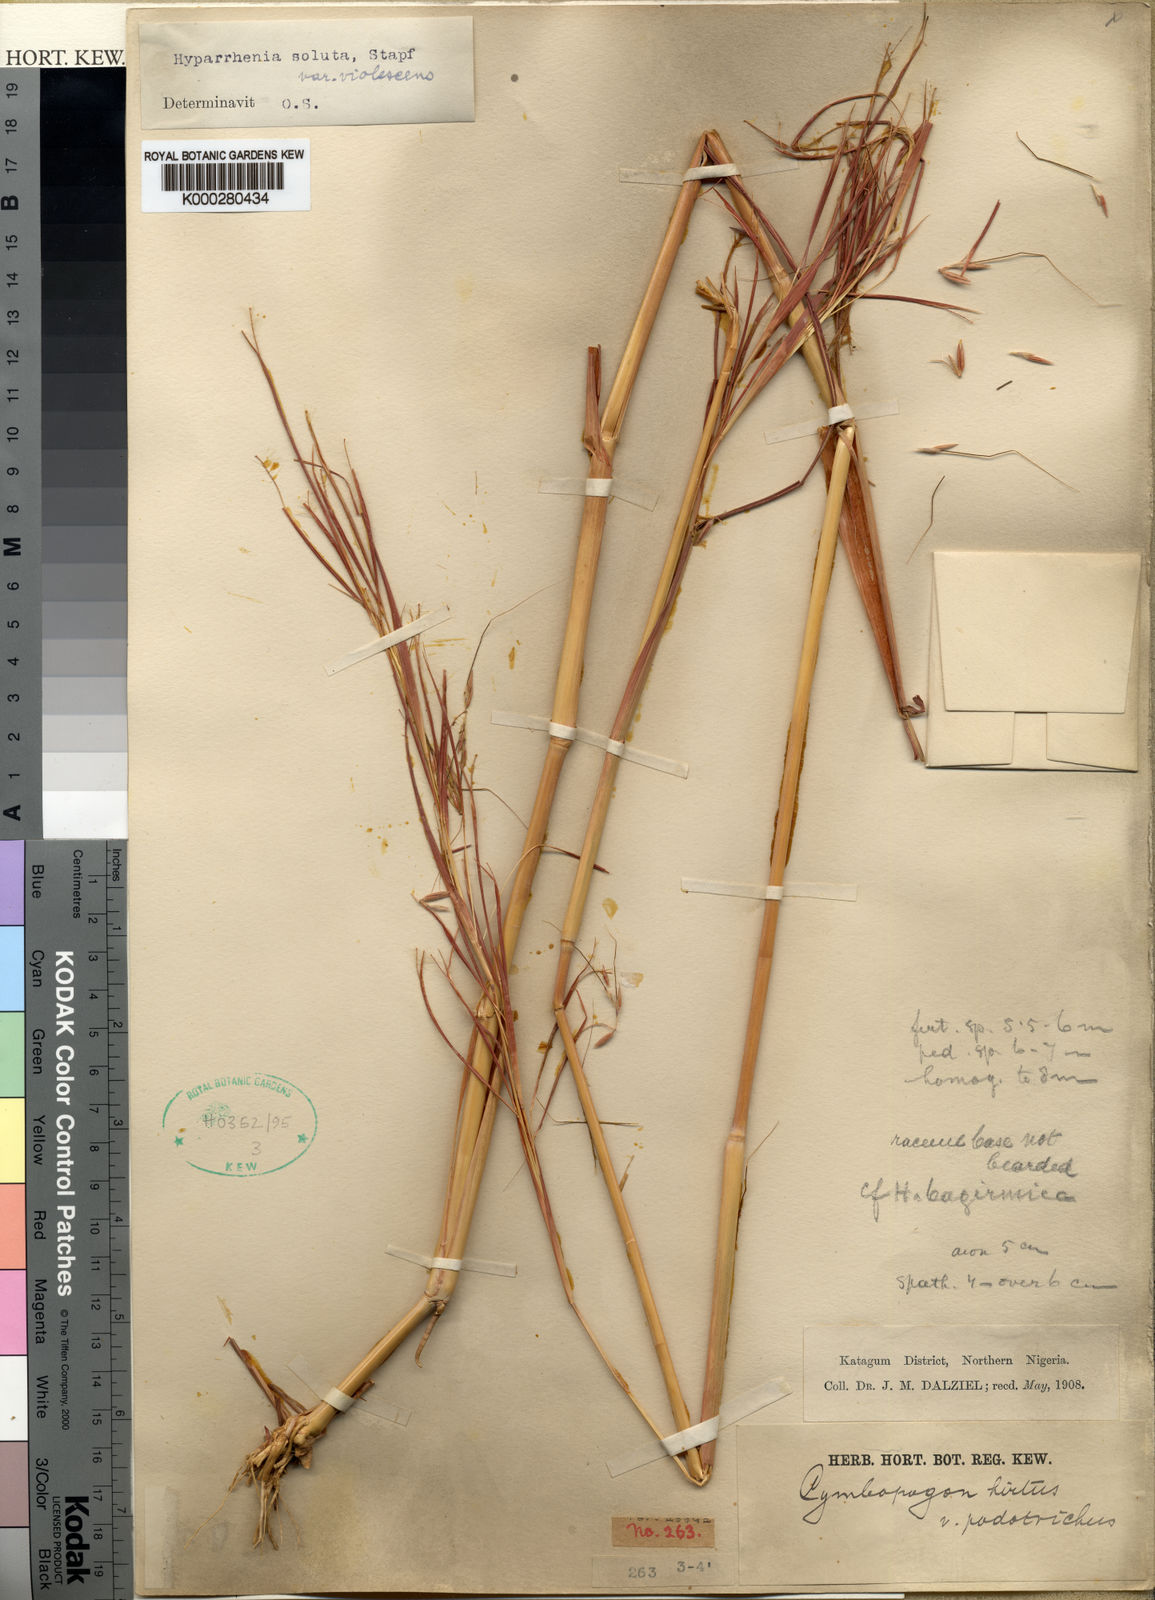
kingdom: Plantae
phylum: Tracheophyta
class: Liliopsida
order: Poales
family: Poaceae
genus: Hyparrhenia
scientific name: Hyparrhenia violascens
